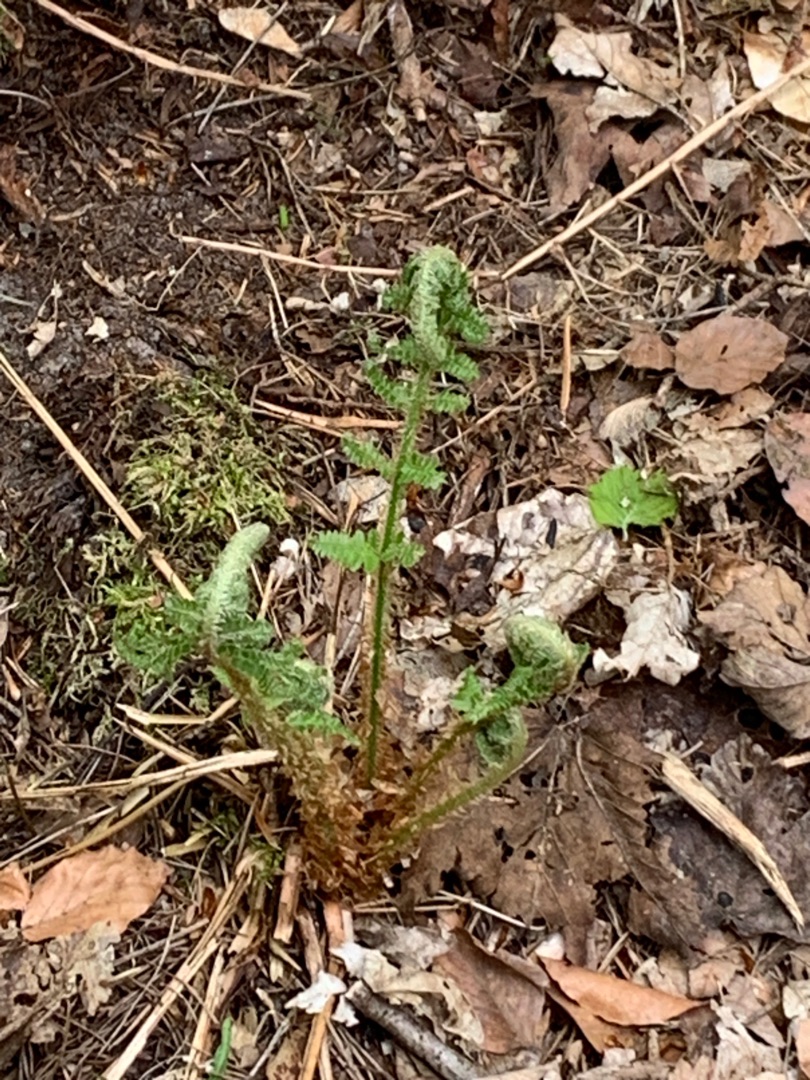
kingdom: Plantae
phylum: Tracheophyta
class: Polypodiopsida
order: Polypodiales
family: Dryopteridaceae
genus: Dryopteris
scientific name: Dryopteris filix-mas
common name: Almindelig mangeløv
